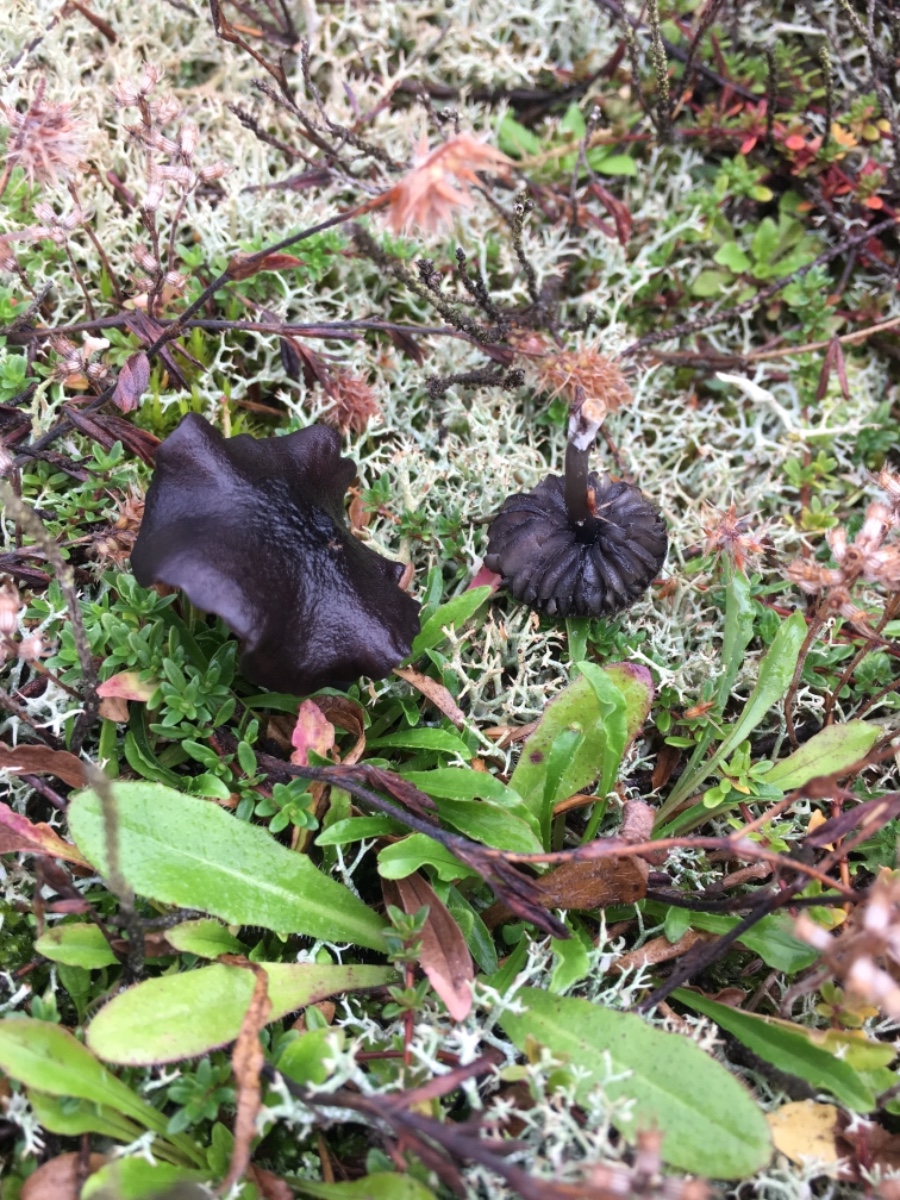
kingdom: Fungi
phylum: Basidiomycota
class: Agaricomycetes
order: Agaricales
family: Entolomataceae
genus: Entoloma
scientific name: Entoloma
